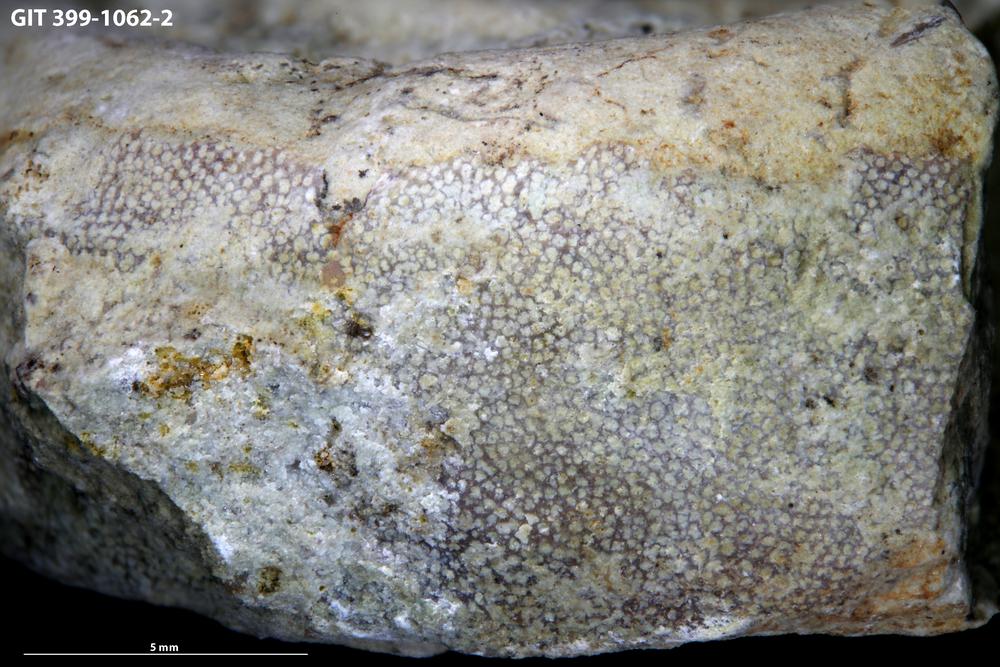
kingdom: Animalia
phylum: Bryozoa
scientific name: Bryozoa
